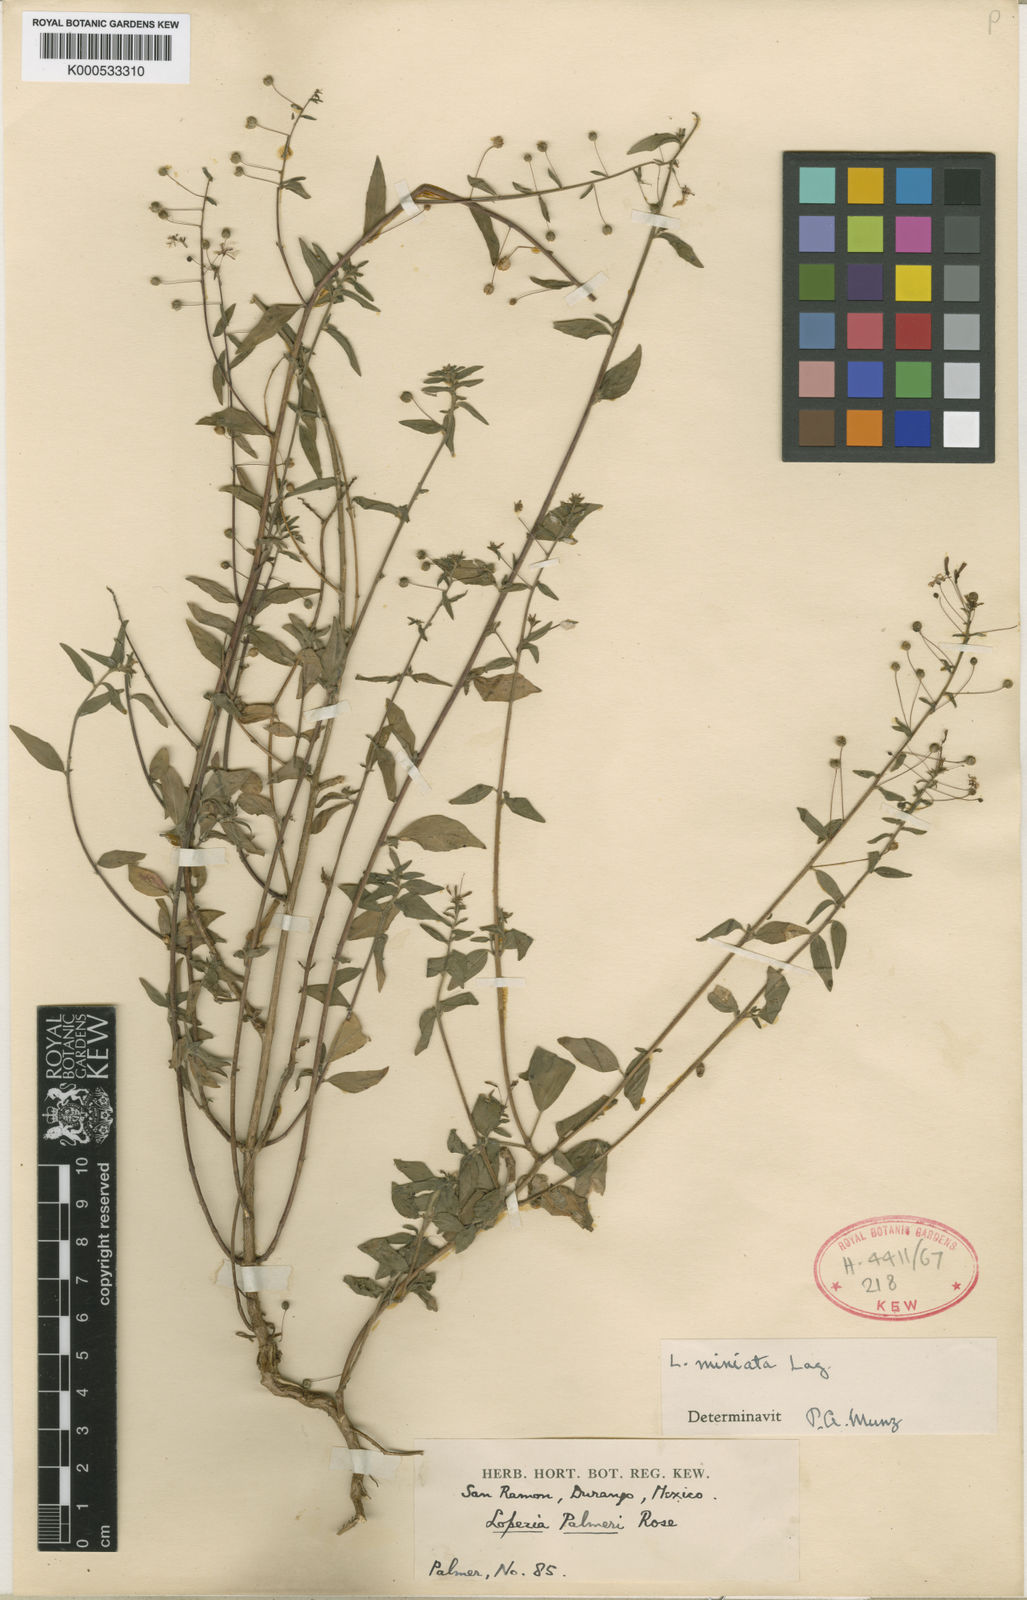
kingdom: Plantae
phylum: Tracheophyta
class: Magnoliopsida
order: Myrtales
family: Onagraceae
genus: Lopezia
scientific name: Lopezia miniata
